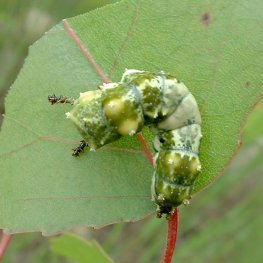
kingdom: Animalia
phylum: Arthropoda
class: Insecta
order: Lepidoptera
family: Nymphalidae
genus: Limenitis
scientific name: Limenitis archippus
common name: Viceroy
